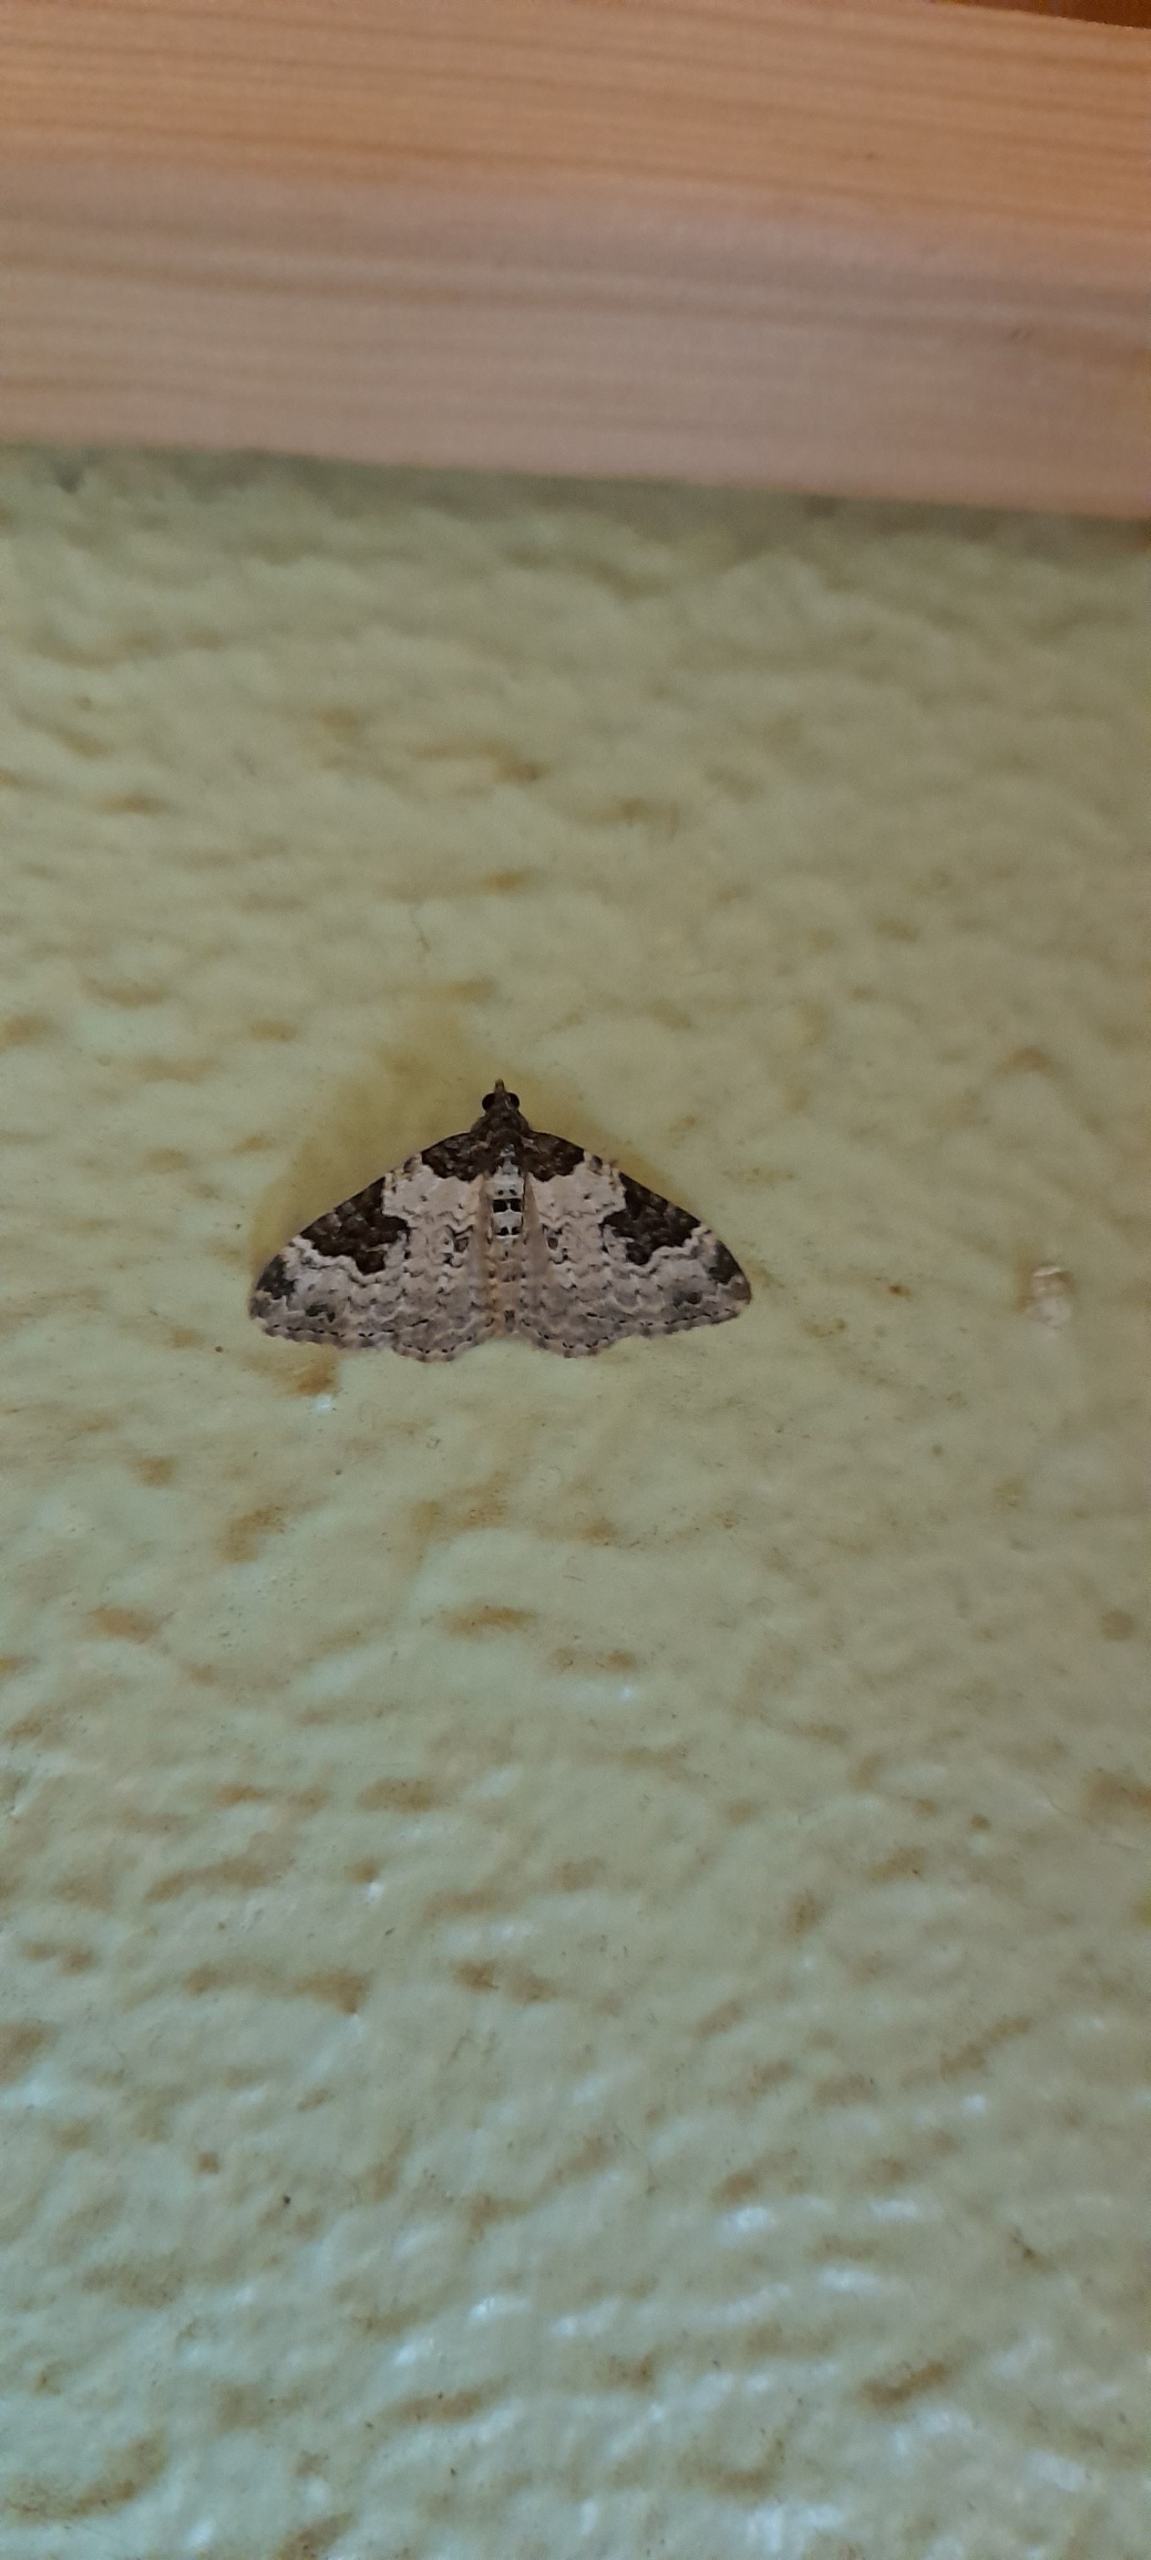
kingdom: Animalia
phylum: Arthropoda
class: Insecta
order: Lepidoptera
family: Geometridae
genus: Xanthorhoe
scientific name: Xanthorhoe fluctuata
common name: Sortbæltet bladmåler
